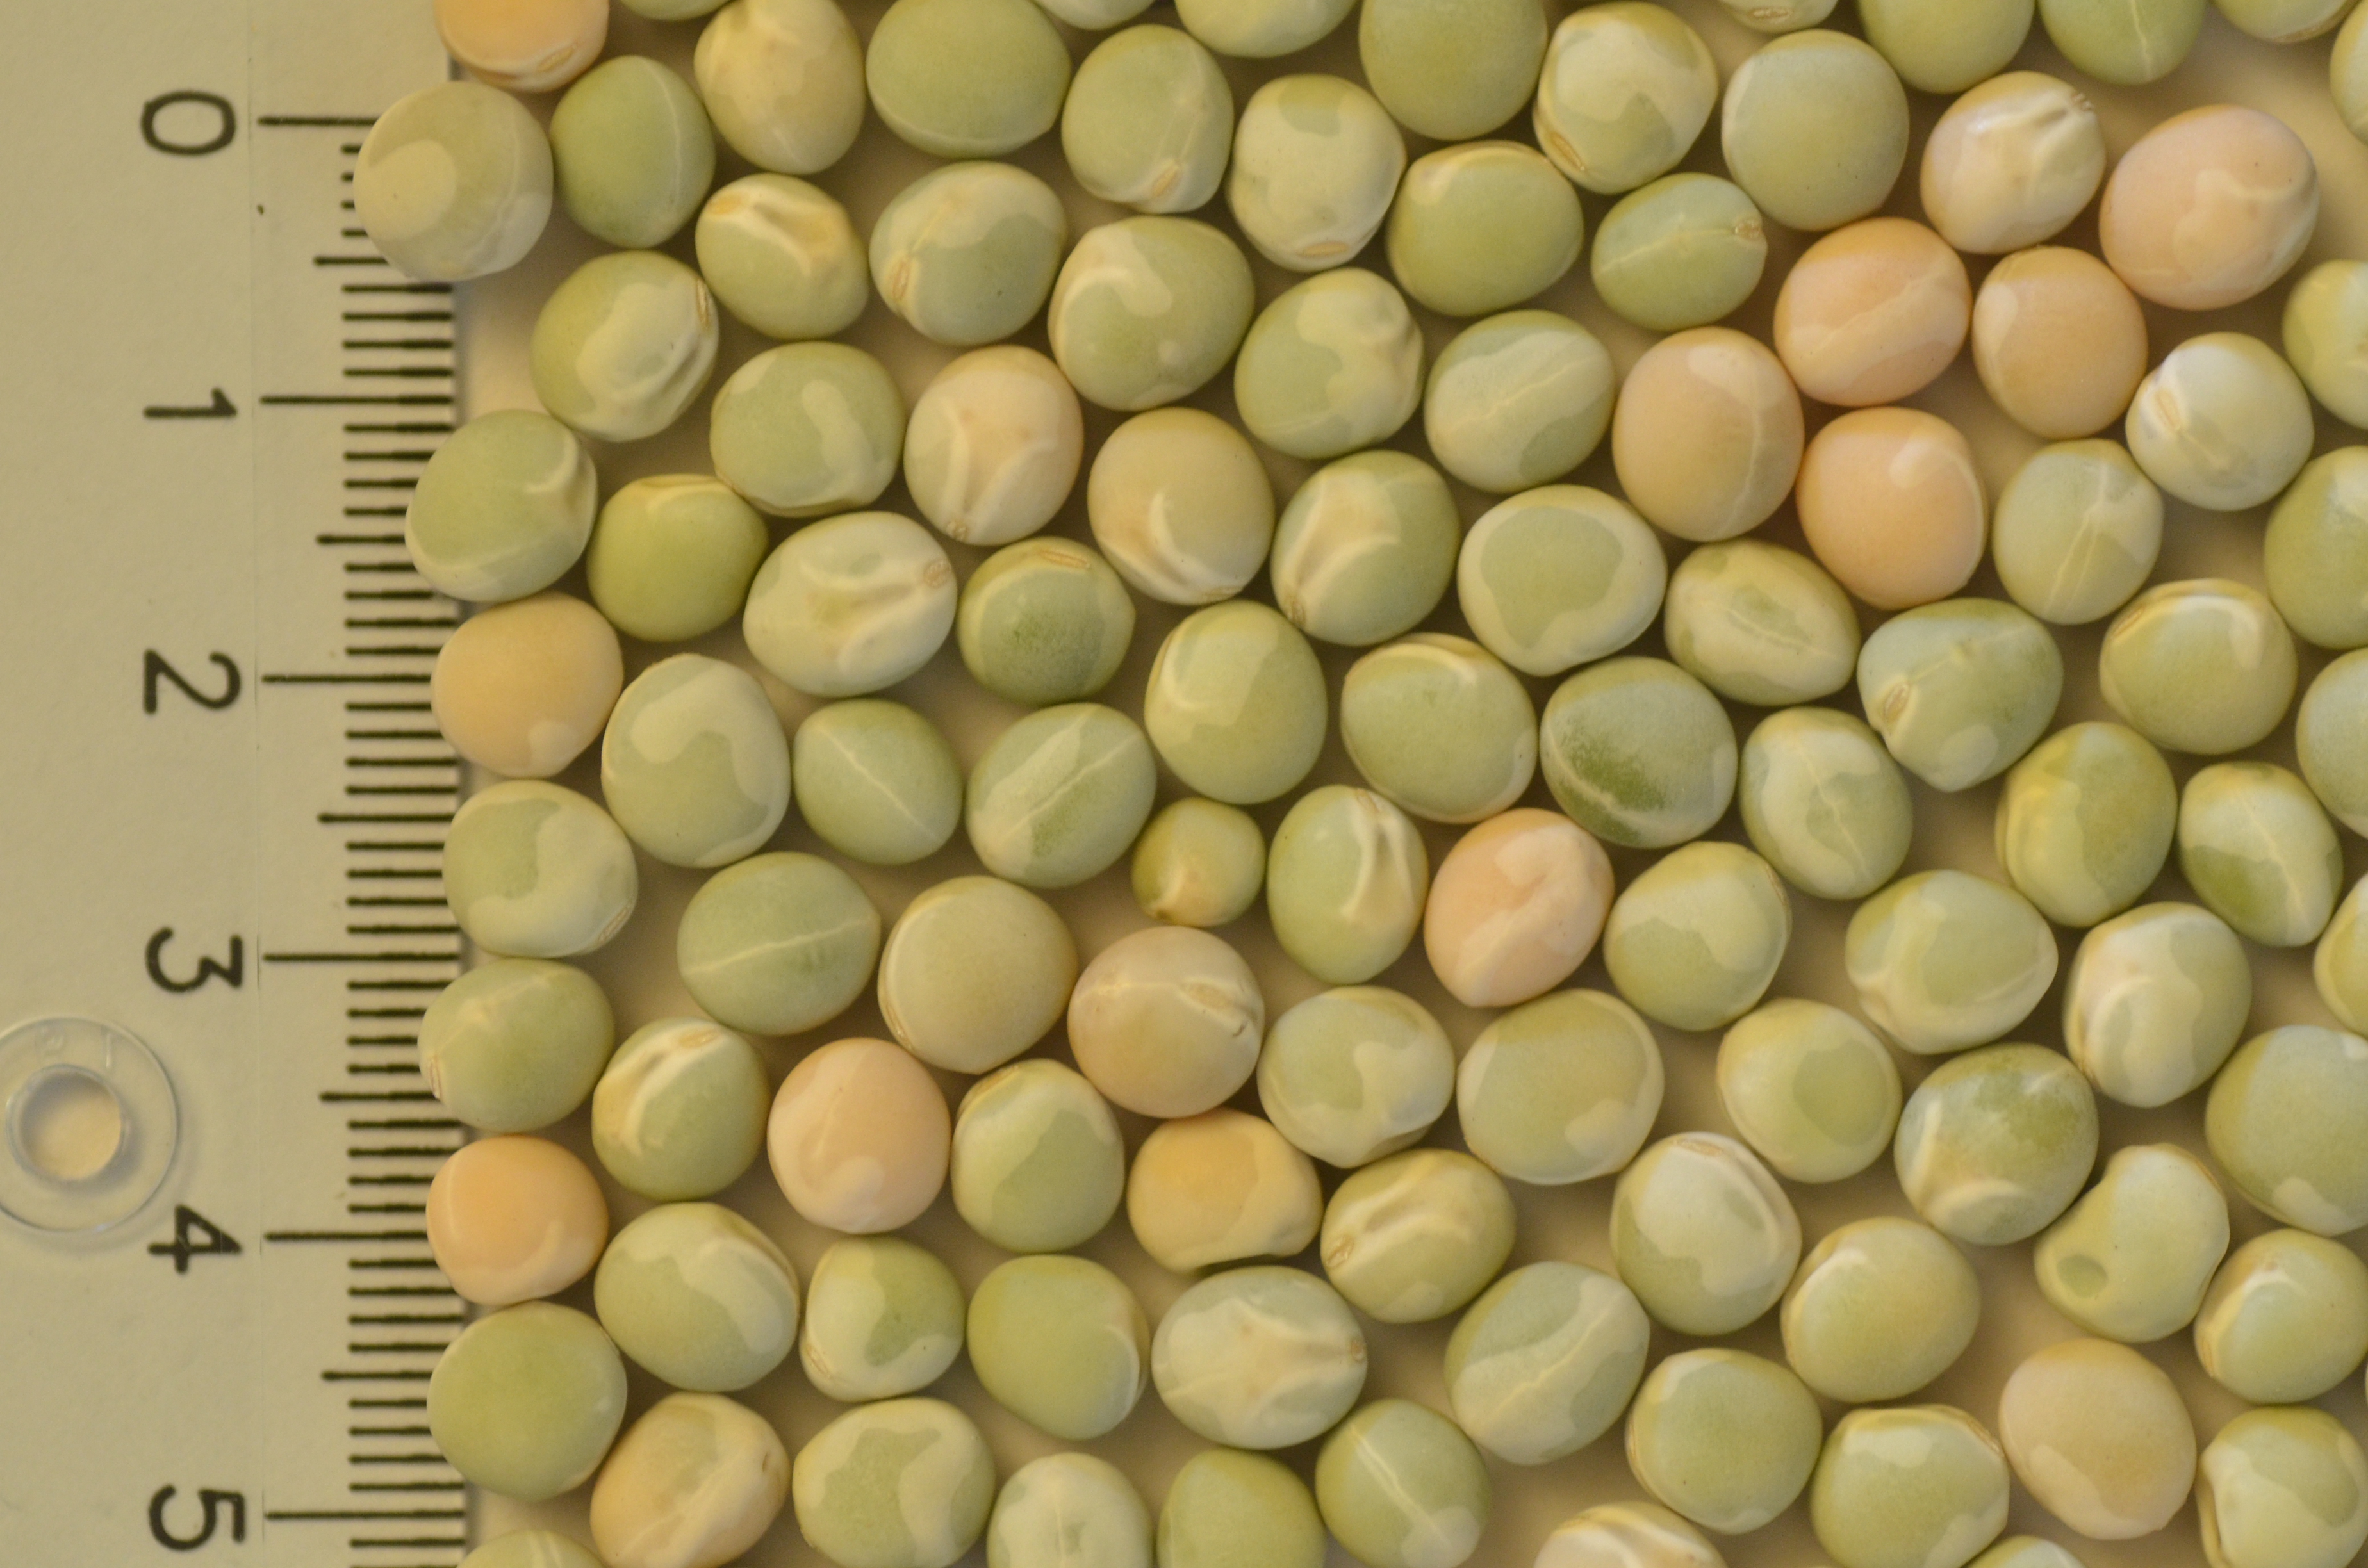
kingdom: Plantae
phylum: Tracheophyta
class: Magnoliopsida
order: Fabales
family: Fabaceae
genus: Lathyrus
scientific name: Lathyrus oleraceus
